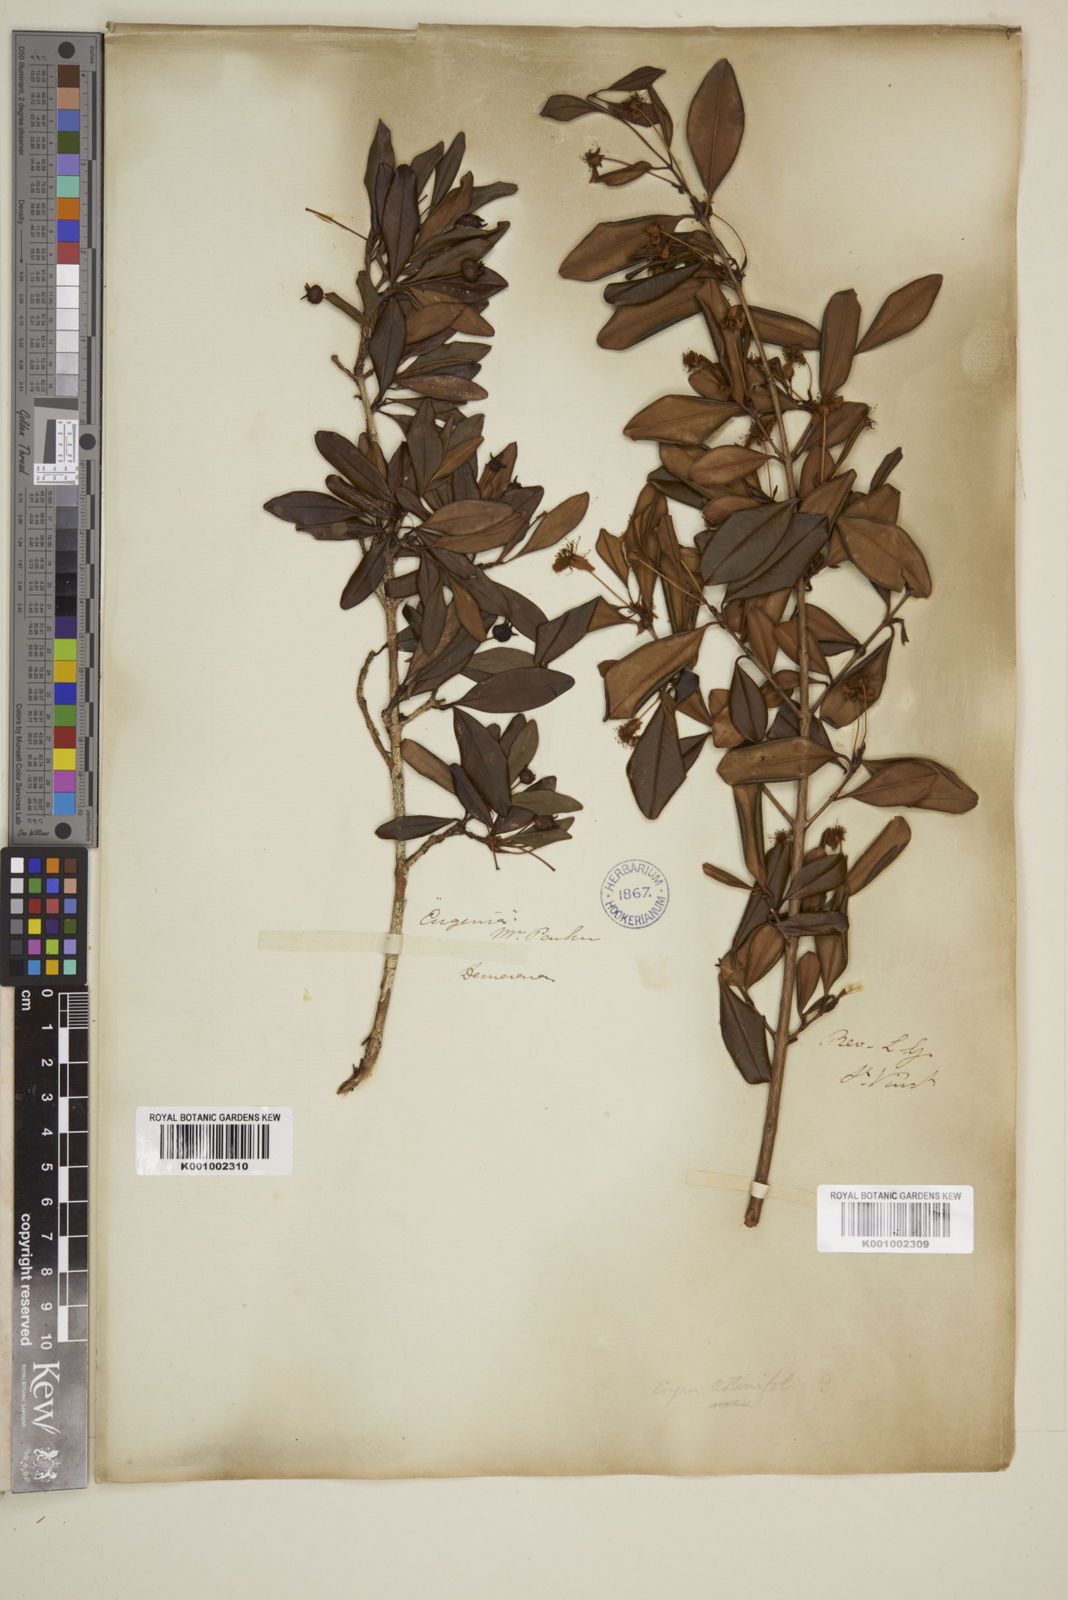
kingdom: Plantae
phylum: Tracheophyta
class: Magnoliopsida
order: Myrtales
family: Myrtaceae
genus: Eugenia
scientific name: Eugenia ligustrina
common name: Privet stopper
